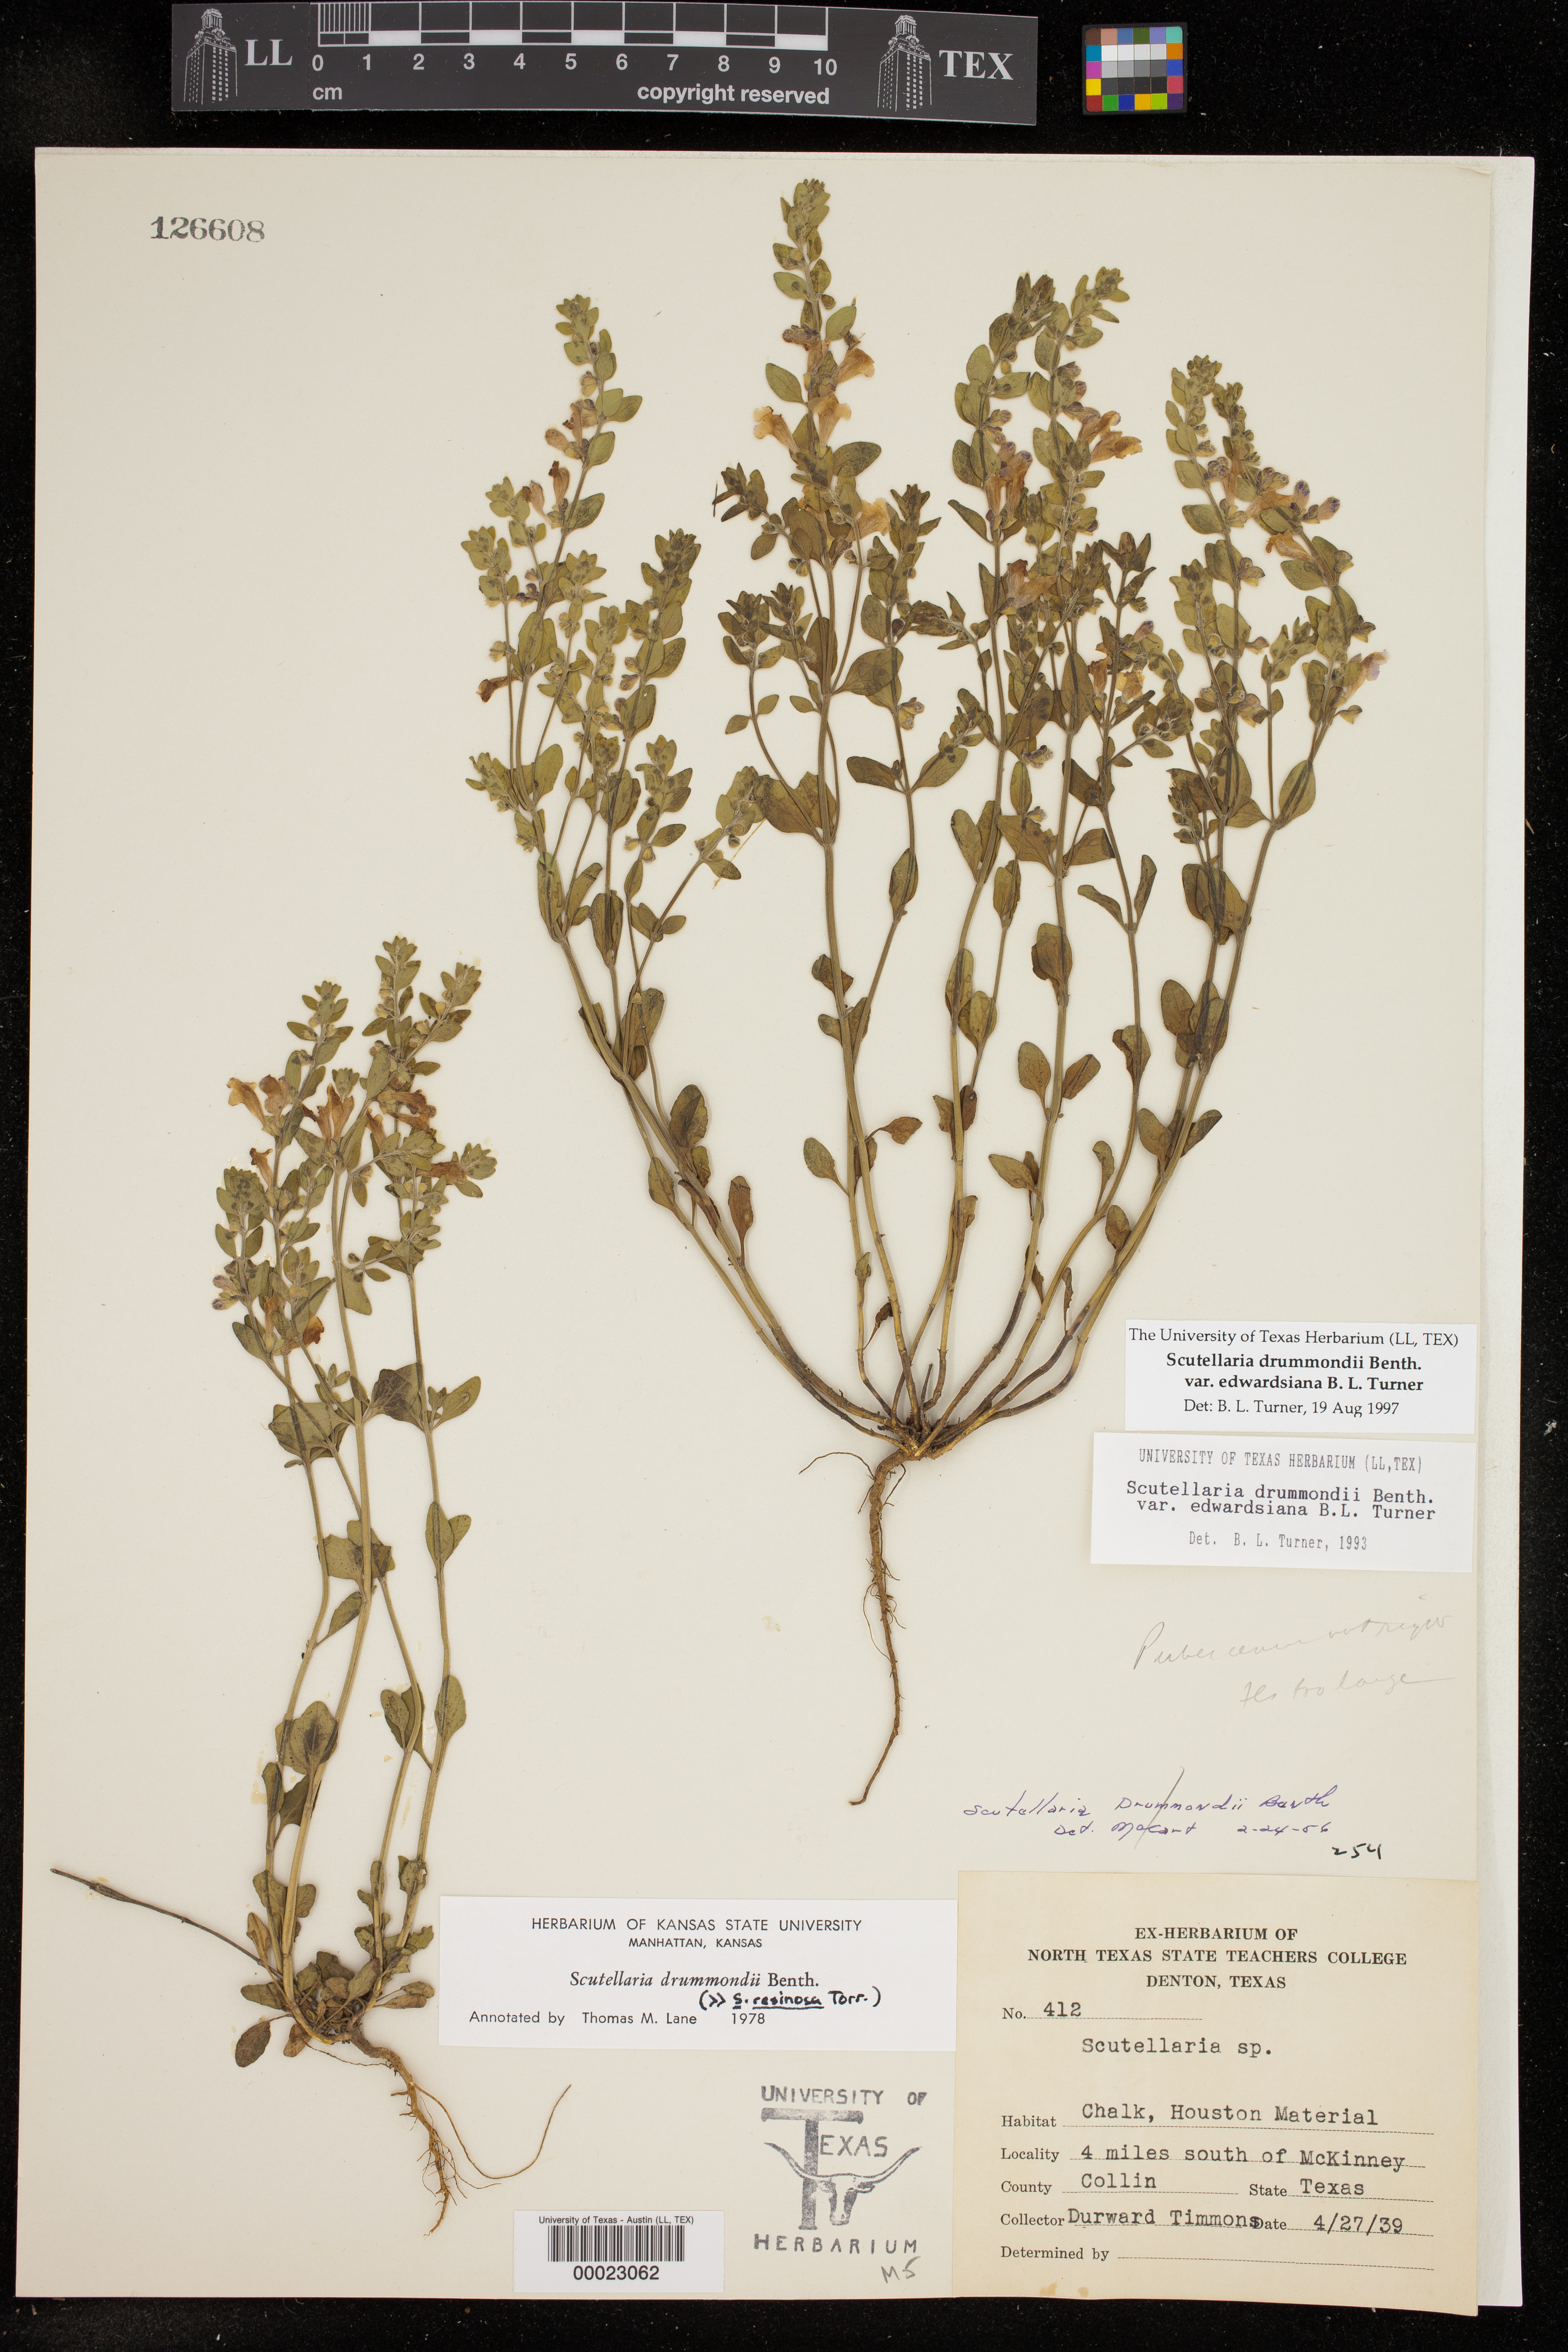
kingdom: Plantae
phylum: Tracheophyta
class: Magnoliopsida
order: Lamiales
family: Lamiaceae
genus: Scutellaria
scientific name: Scutellaria drummondii
